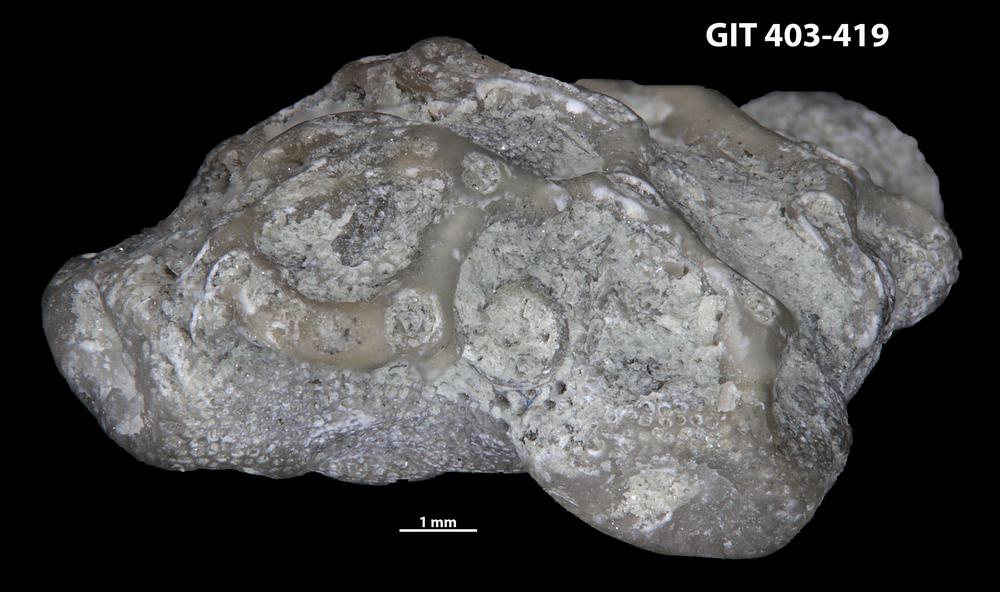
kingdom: Animalia
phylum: Bryozoa
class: Stenolaemata
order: Cystoporida
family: Fistuliporidae
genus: Fistulipora
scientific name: Fistulipora przhidolensis
